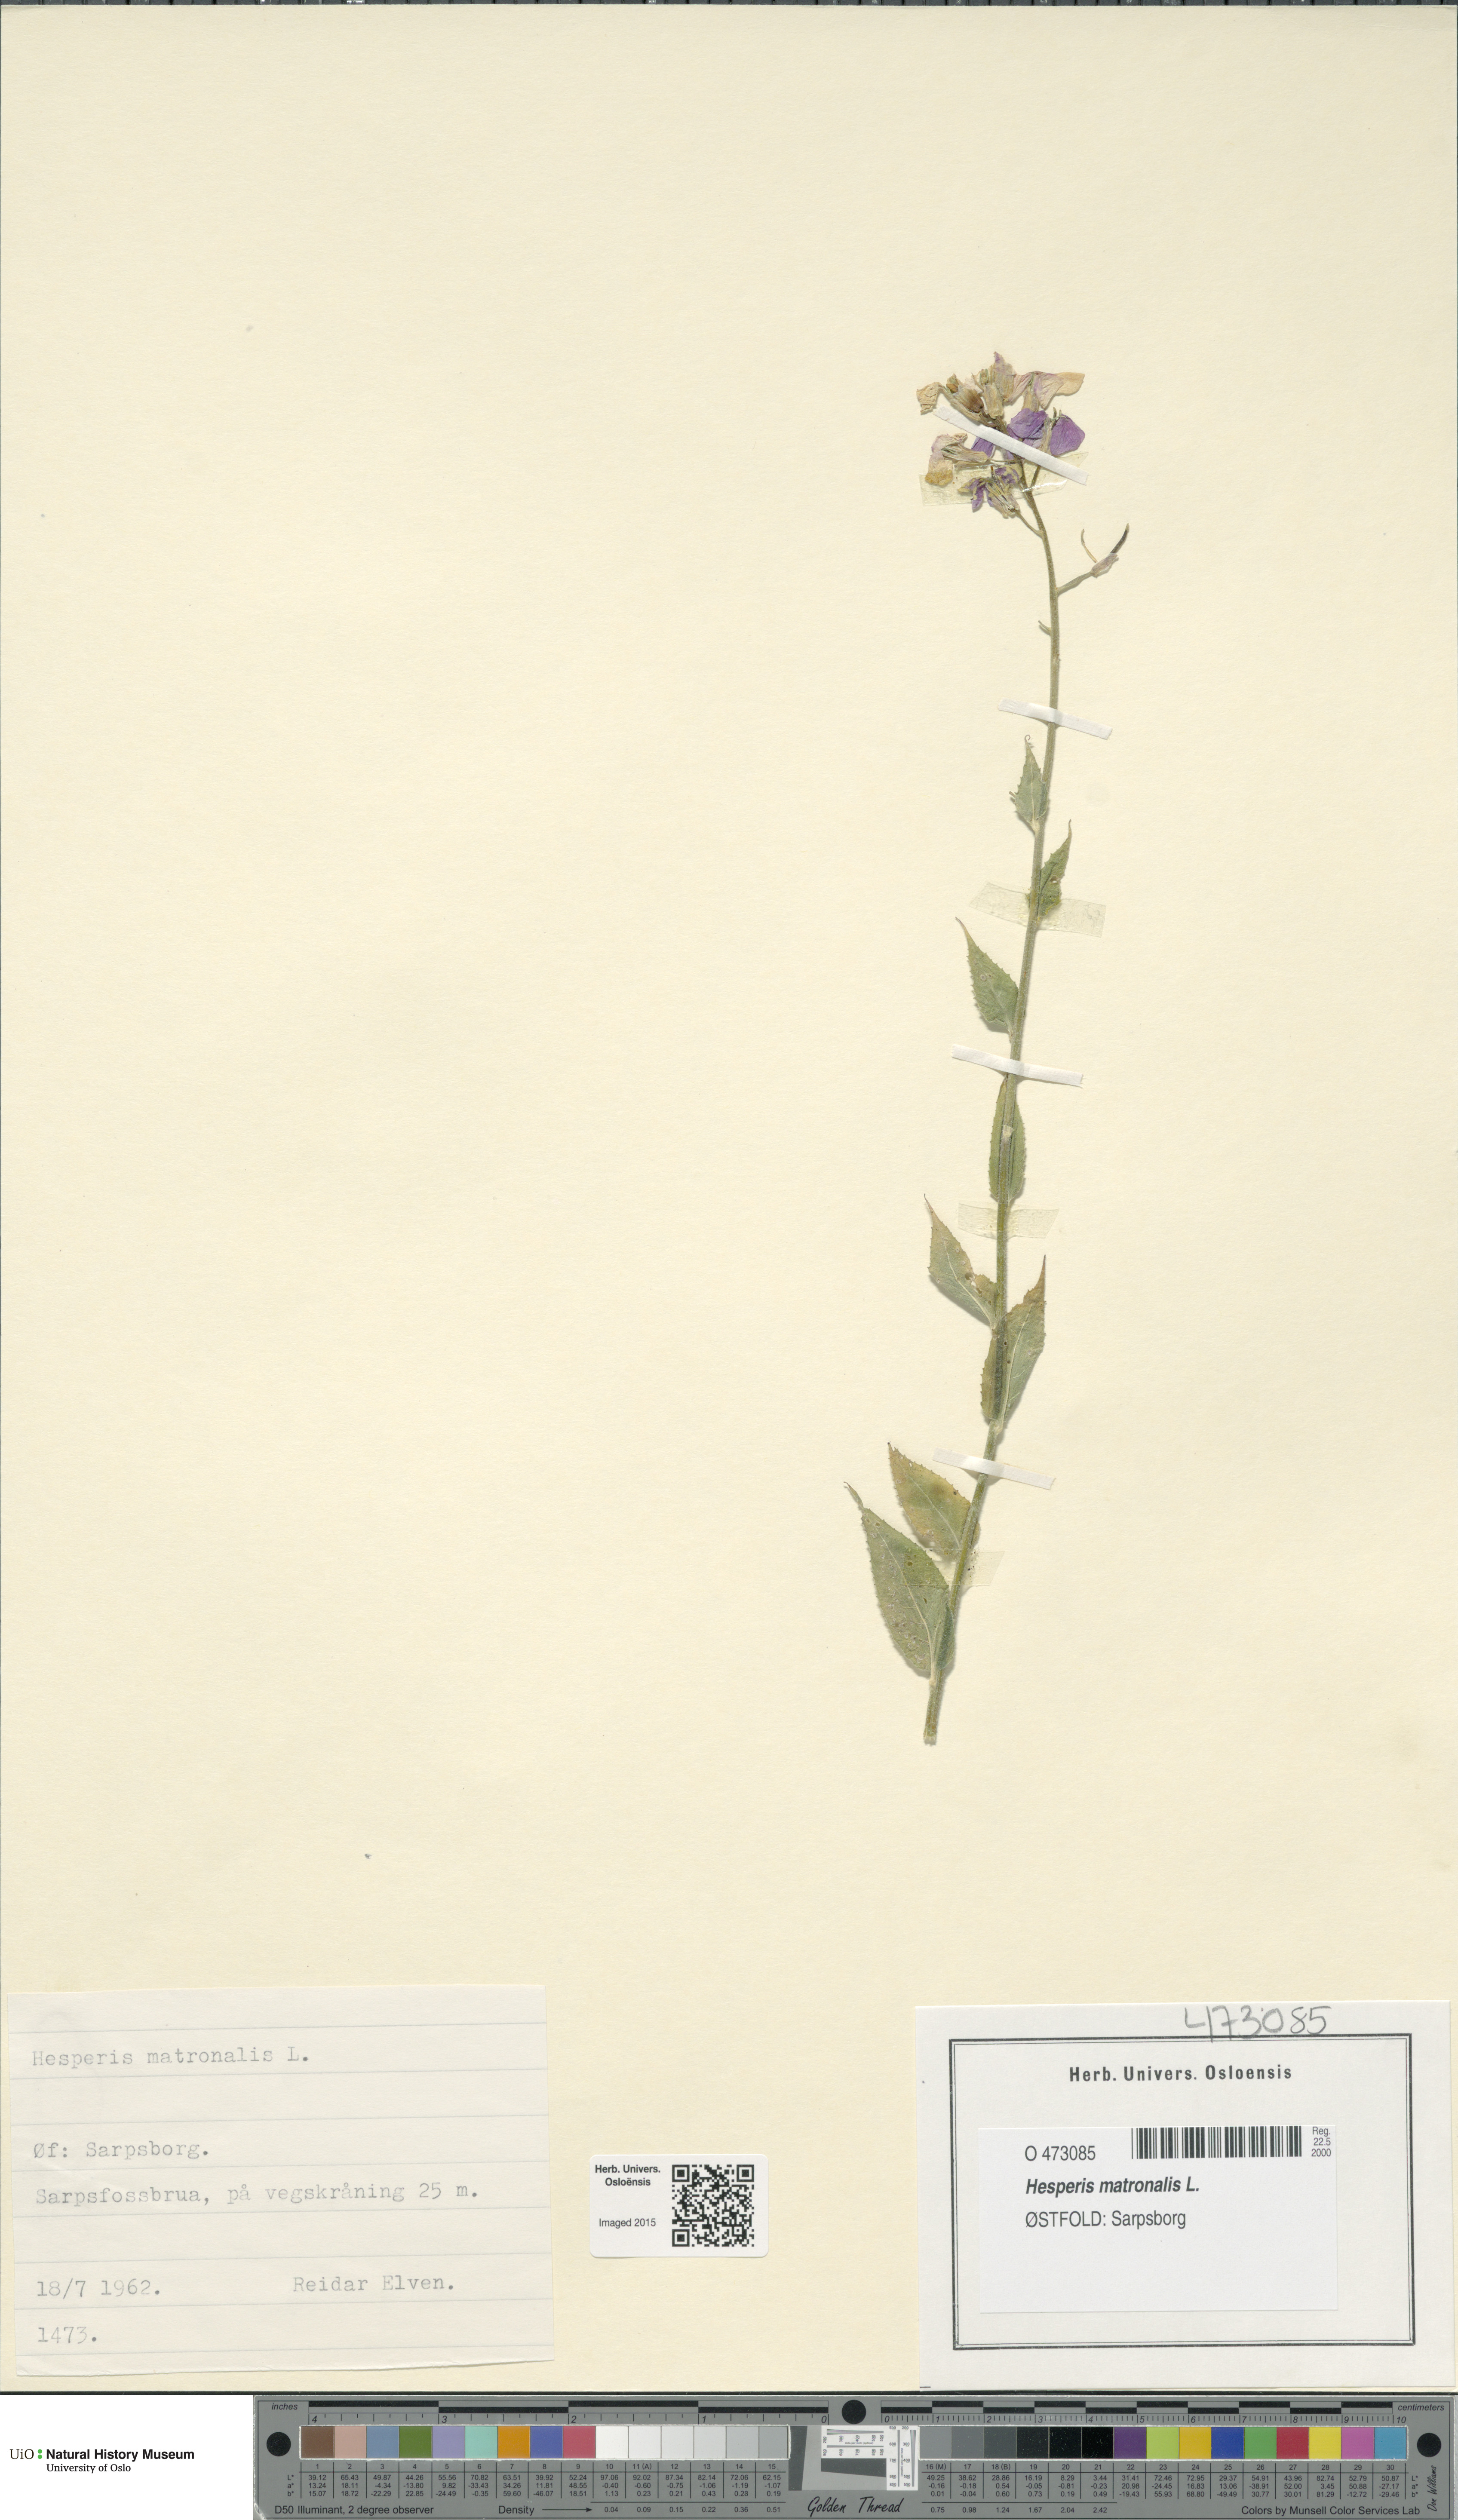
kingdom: Plantae
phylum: Tracheophyta
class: Magnoliopsida
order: Brassicales
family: Brassicaceae
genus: Hesperis
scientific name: Hesperis matronalis
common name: Dame's-violet
